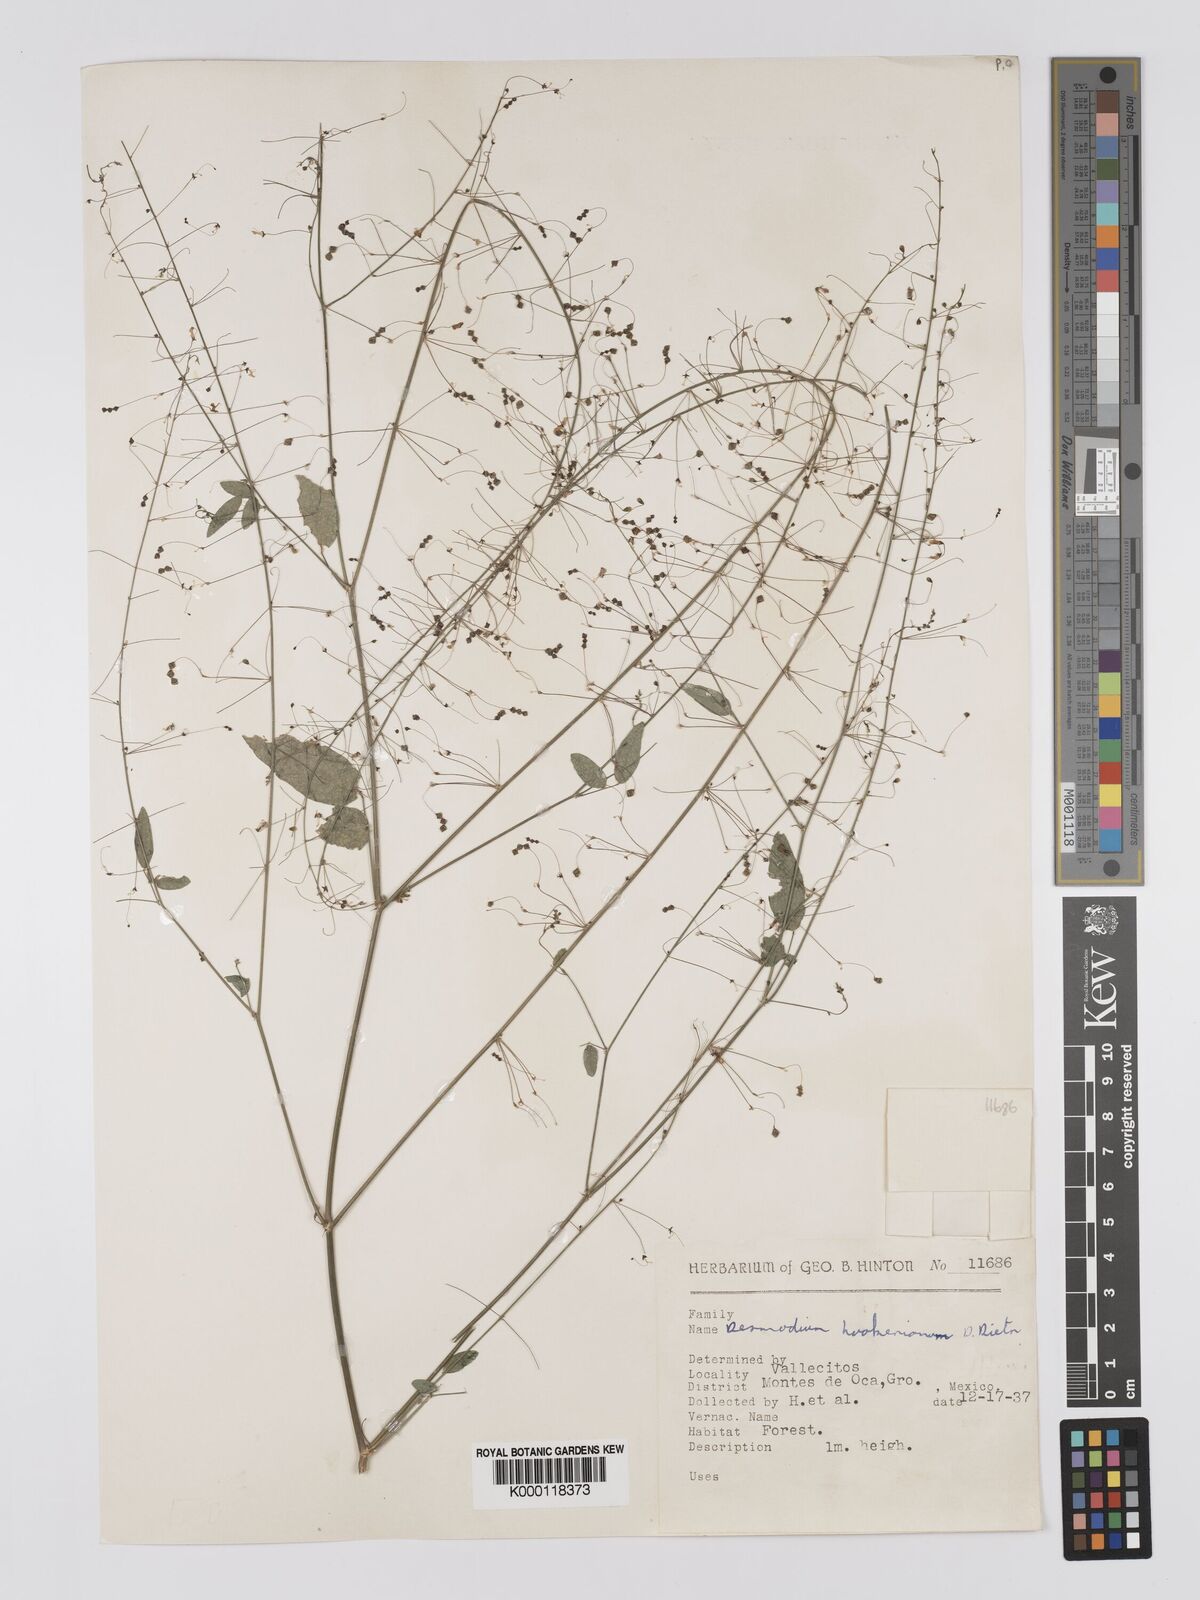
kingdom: Plantae
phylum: Tracheophyta
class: Magnoliopsida
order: Fabales
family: Fabaceae
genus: Desmodium
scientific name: Desmodium hookerianum
